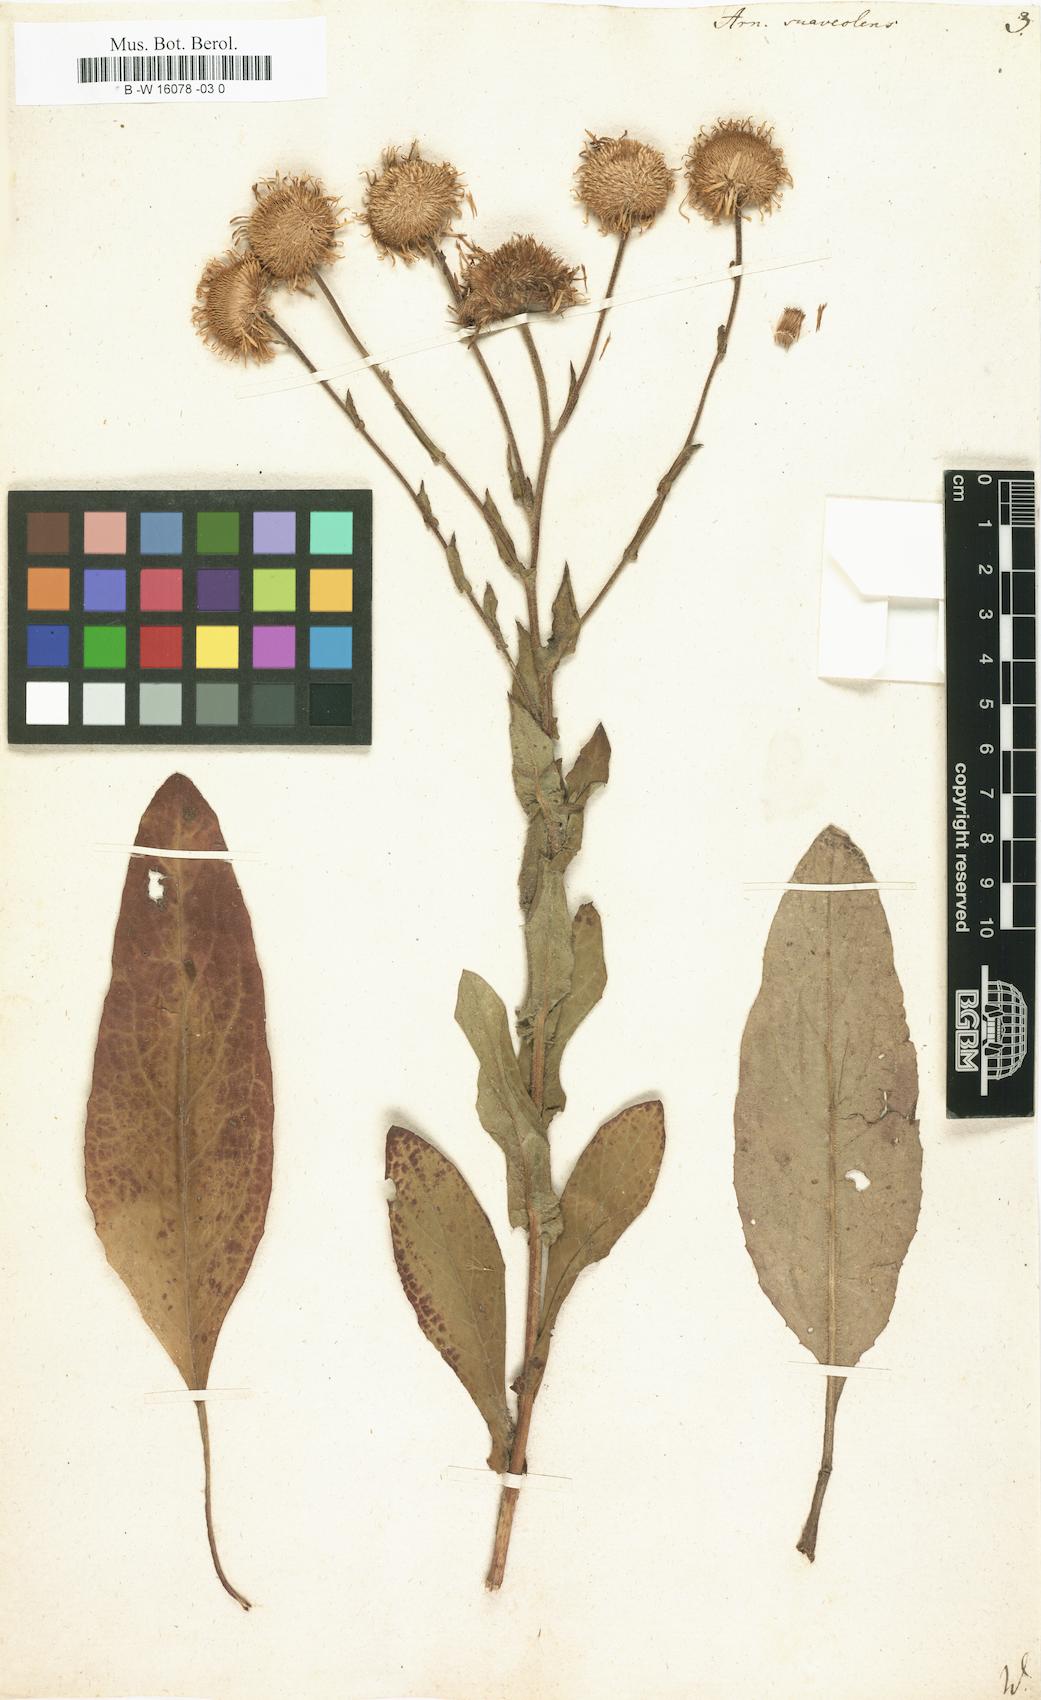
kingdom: Plantae
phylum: Tracheophyta
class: Magnoliopsida
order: Asterales
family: Asteraceae
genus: Arnica
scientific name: Arnica
